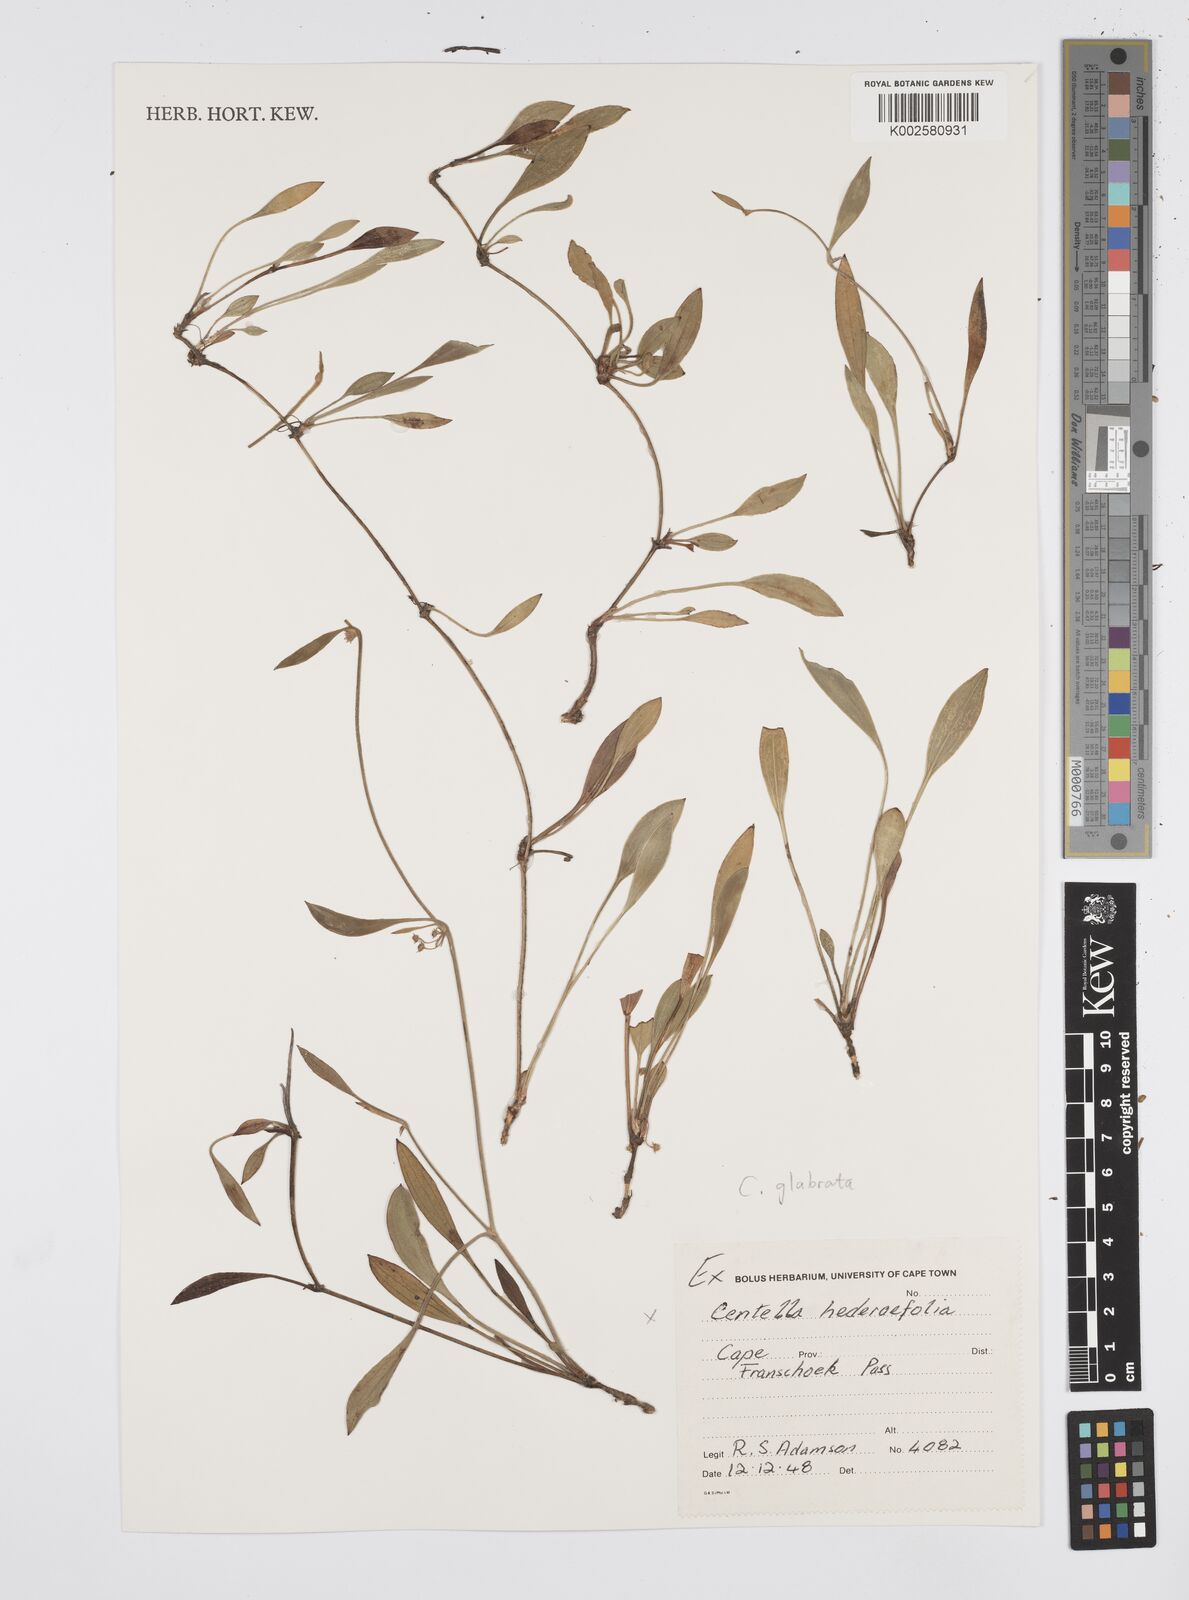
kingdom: Plantae
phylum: Tracheophyta
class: Magnoliopsida
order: Apiales
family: Apiaceae
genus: Centella
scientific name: Centella macroda
